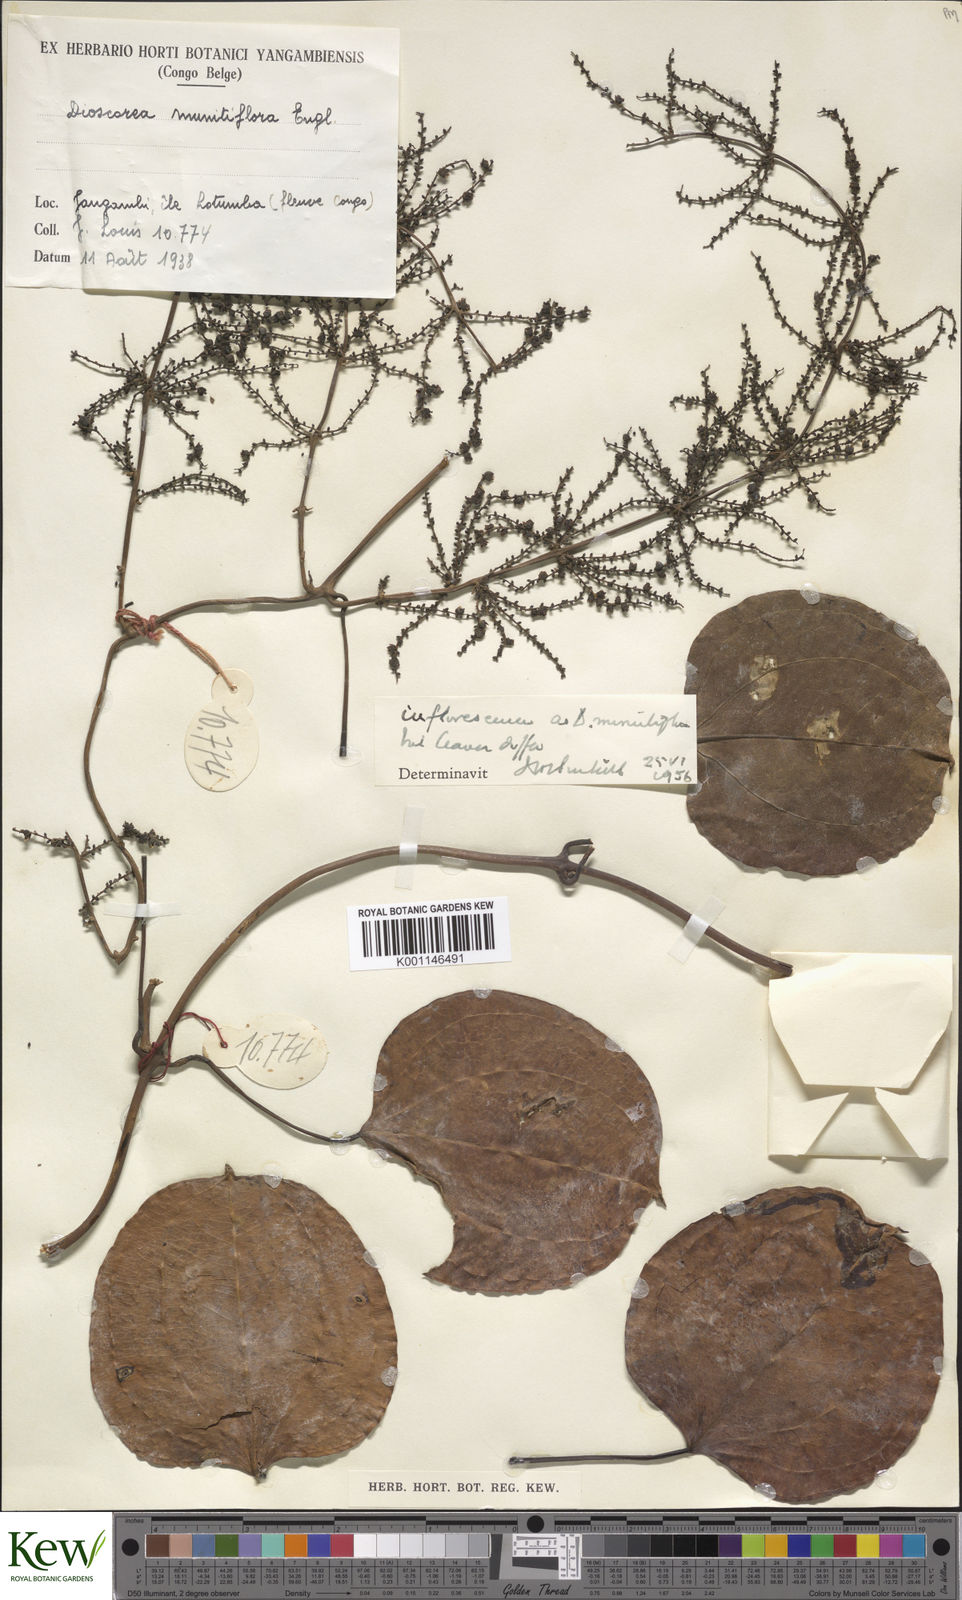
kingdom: Plantae
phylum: Tracheophyta
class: Liliopsida
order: Dioscoreales
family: Dioscoreaceae
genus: Dioscorea
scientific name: Dioscorea minutiflora
